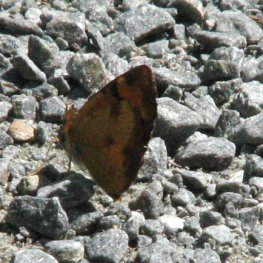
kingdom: Animalia
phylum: Arthropoda
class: Insecta
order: Lepidoptera
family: Nymphalidae
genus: Phyciodes
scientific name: Phyciodes tharos
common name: Northern Crescent
